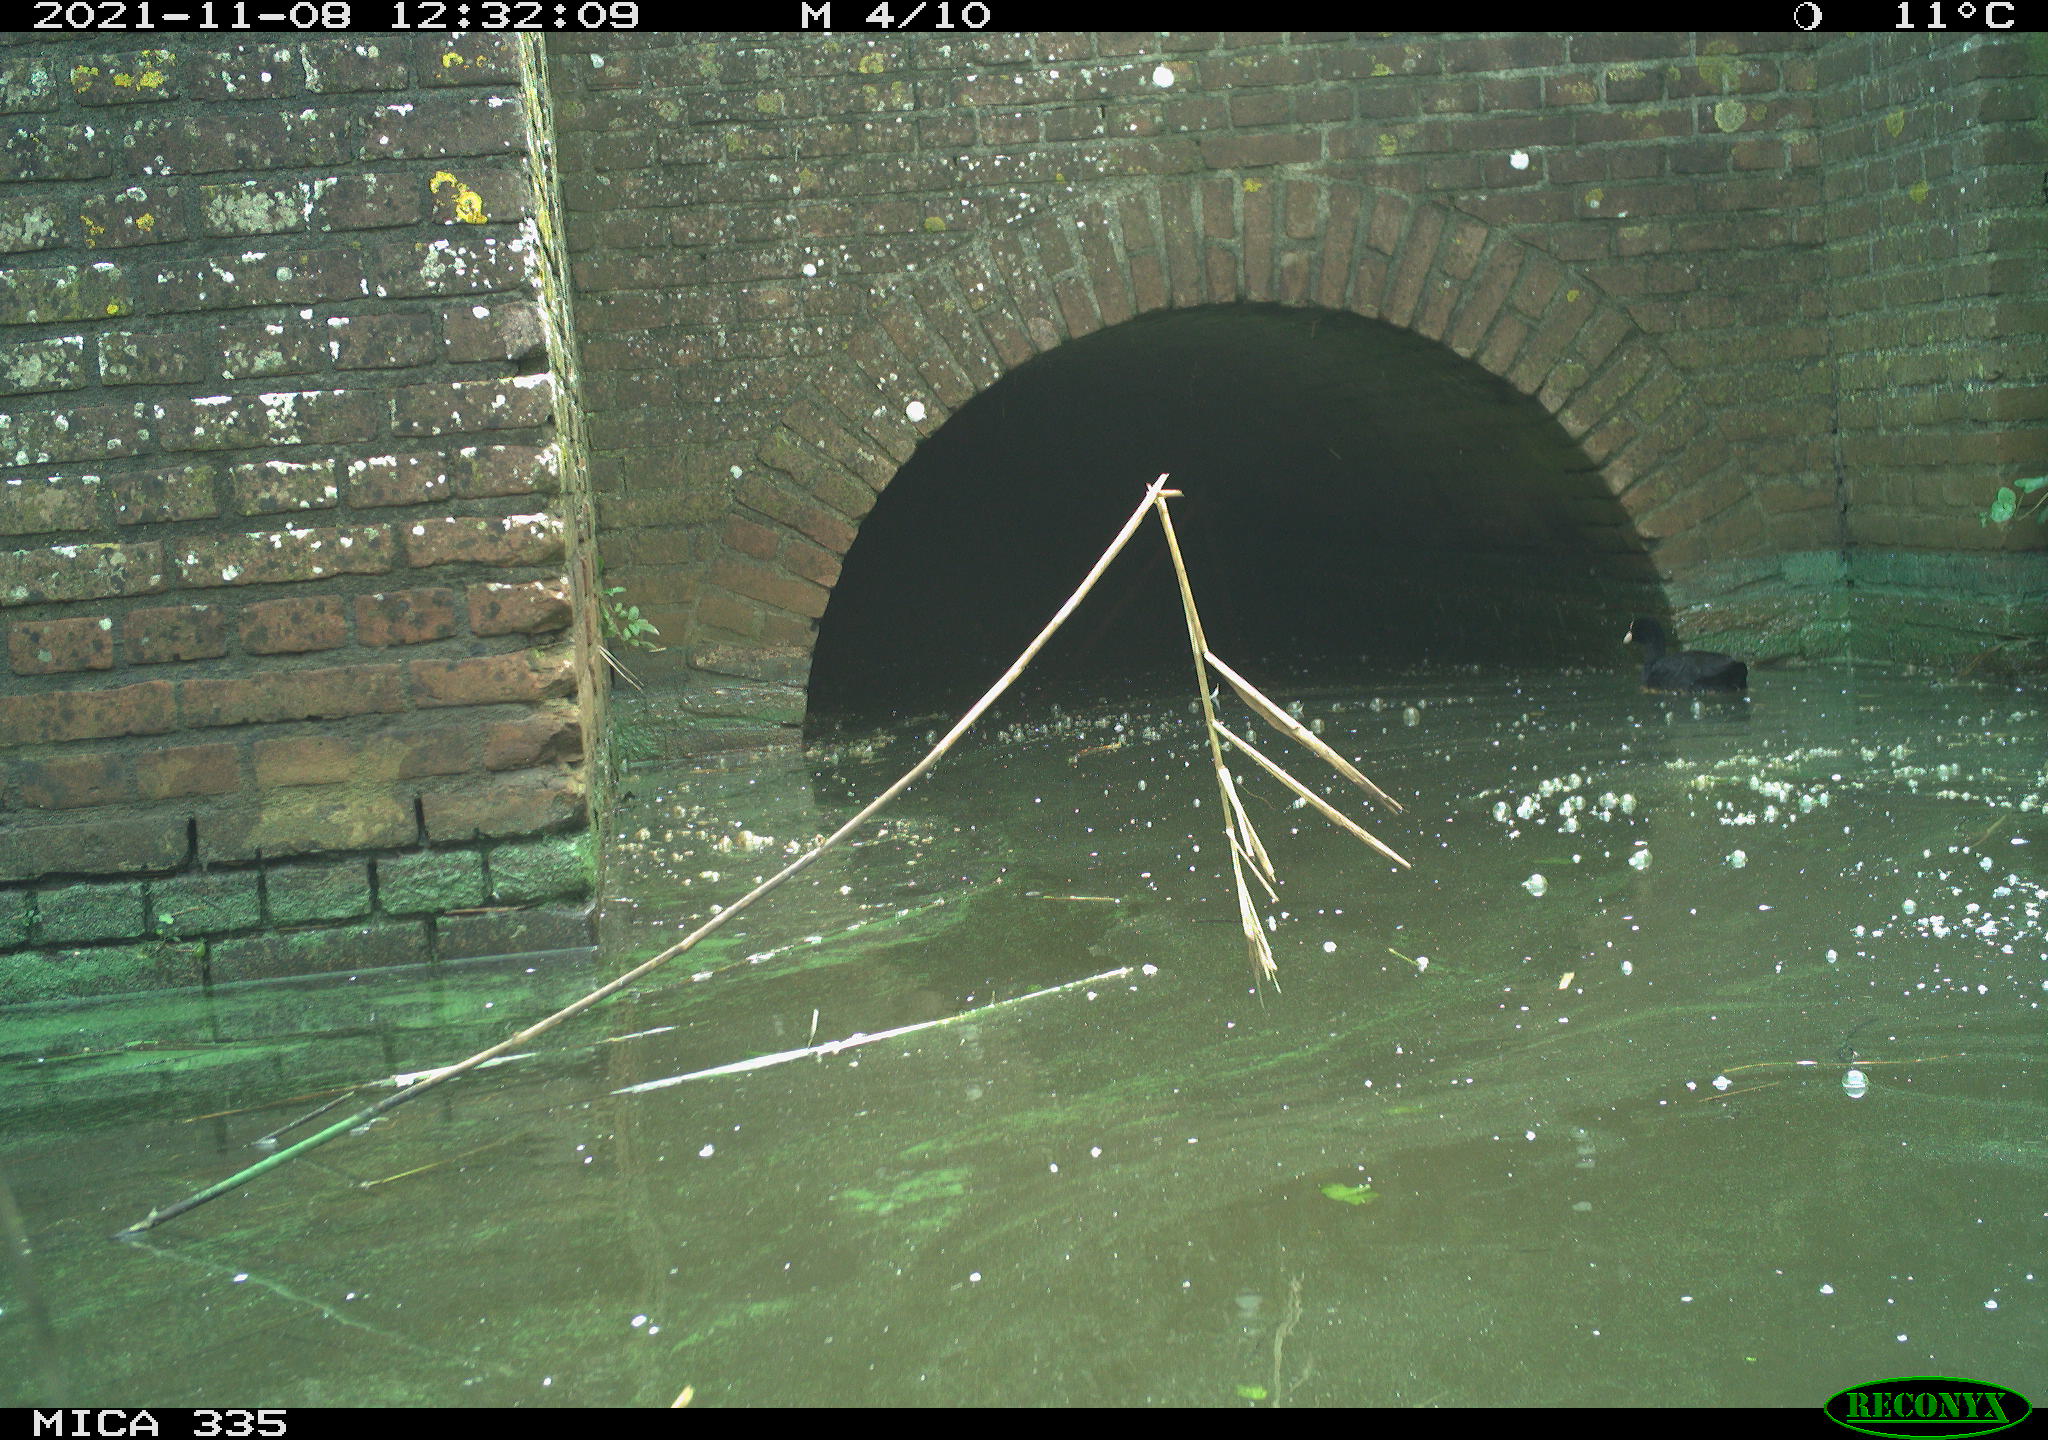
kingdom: Animalia
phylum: Chordata
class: Aves
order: Gruiformes
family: Rallidae
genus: Fulica
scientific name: Fulica atra
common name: Eurasian coot
